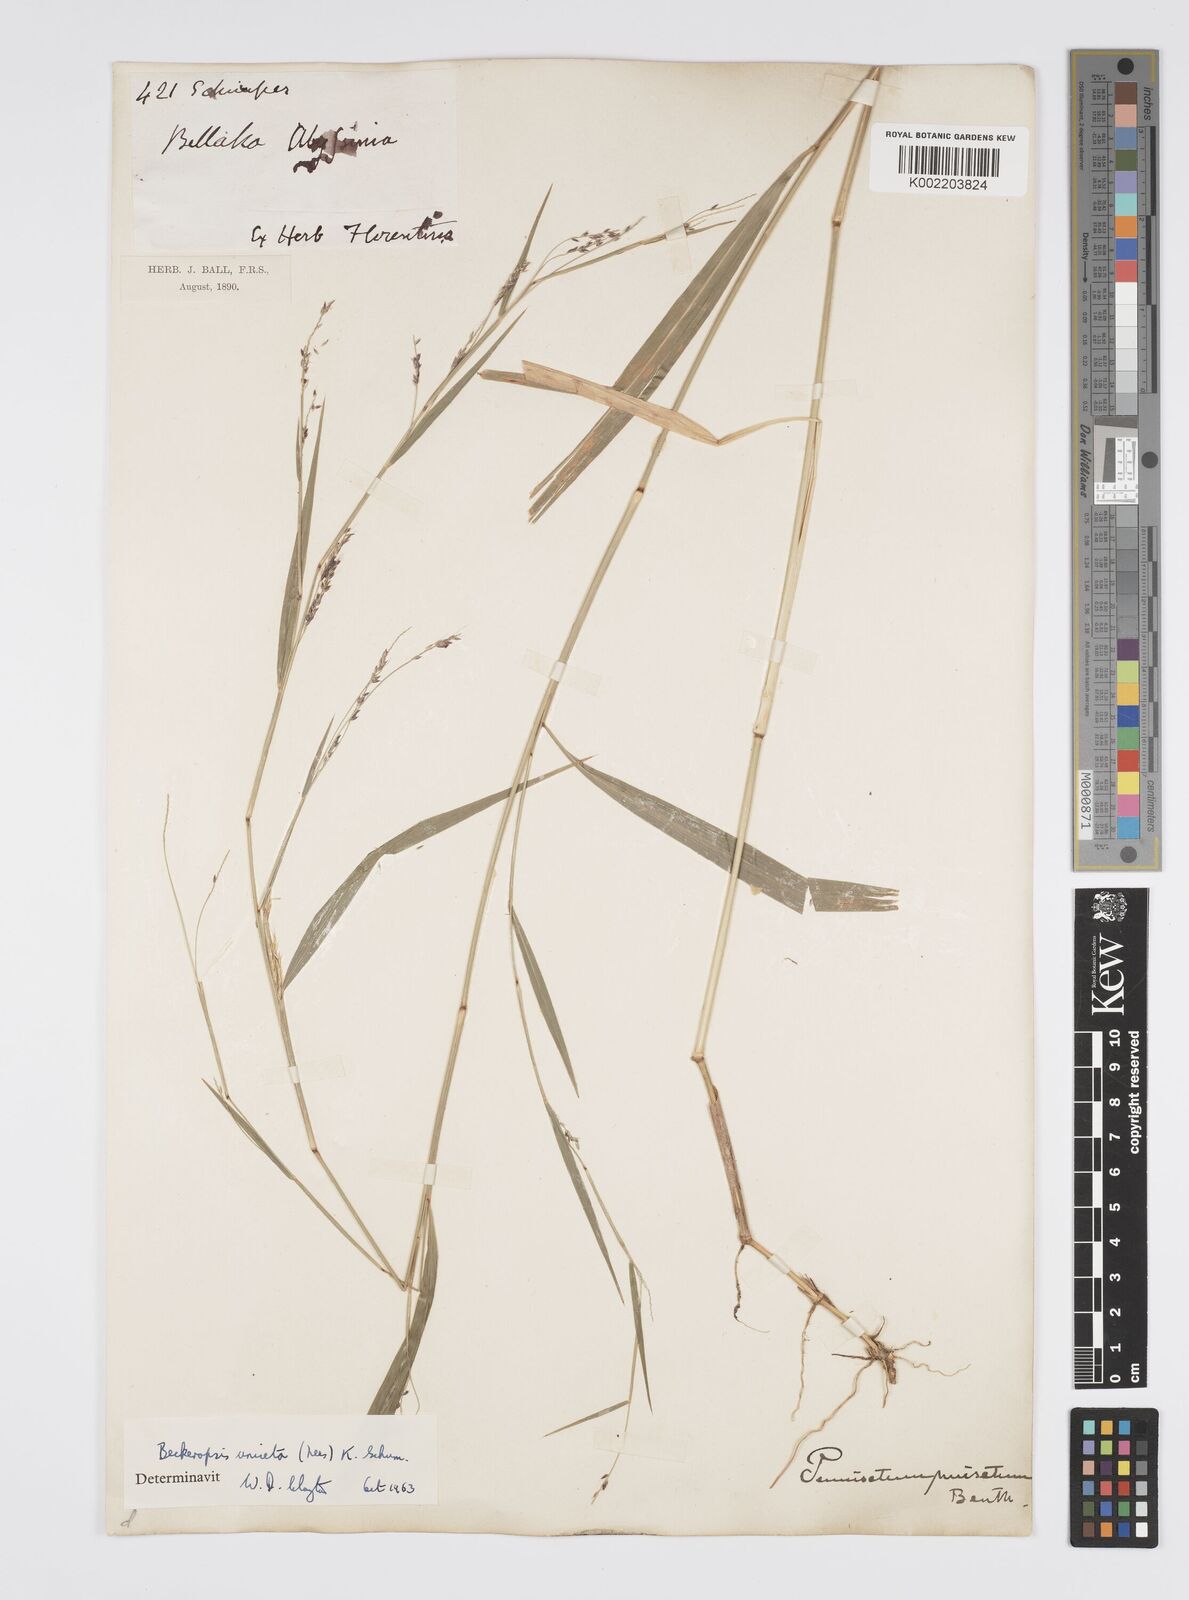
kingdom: Plantae
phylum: Tracheophyta
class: Liliopsida
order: Poales
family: Poaceae
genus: Cenchrus
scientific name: Cenchrus unisetus
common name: Natal grass
